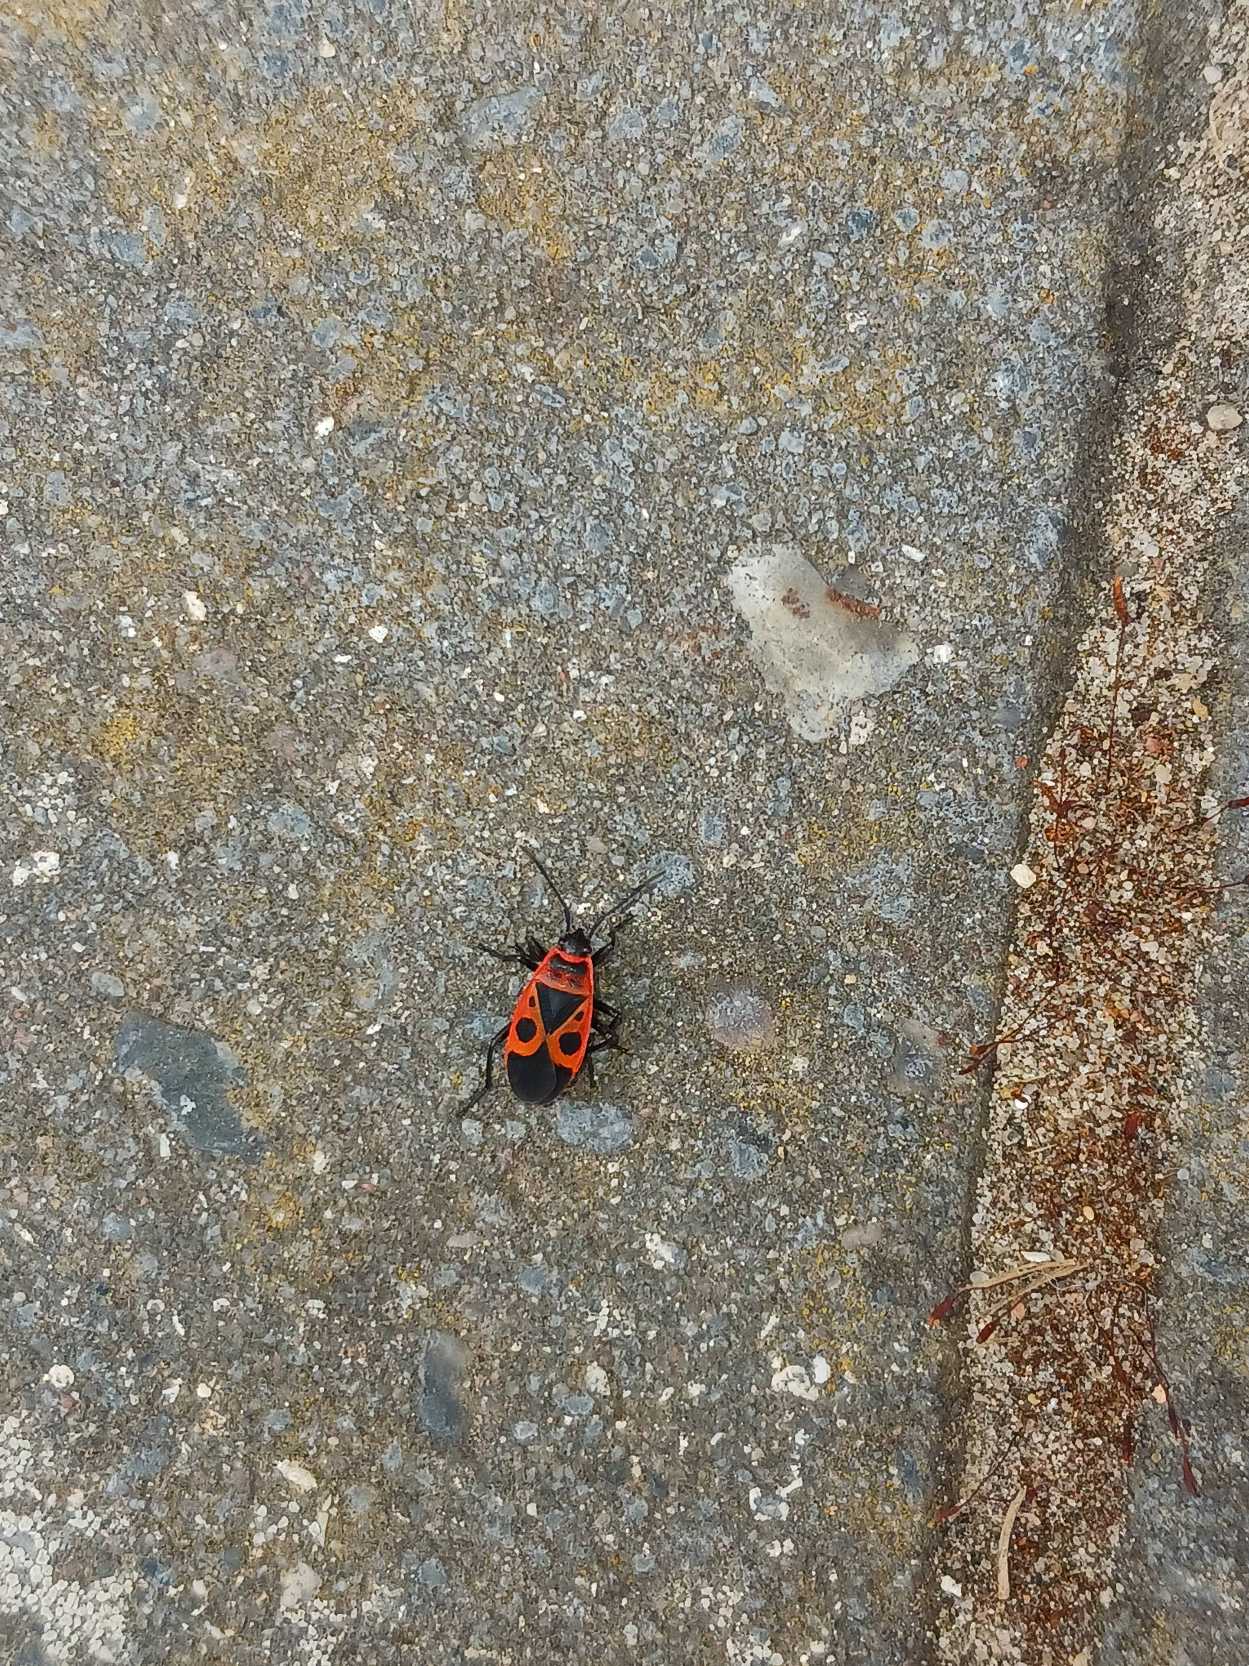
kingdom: Animalia
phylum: Arthropoda
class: Insecta
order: Hemiptera
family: Pyrrhocoridae
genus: Pyrrhocoris
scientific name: Pyrrhocoris apterus
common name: Ildtæge
